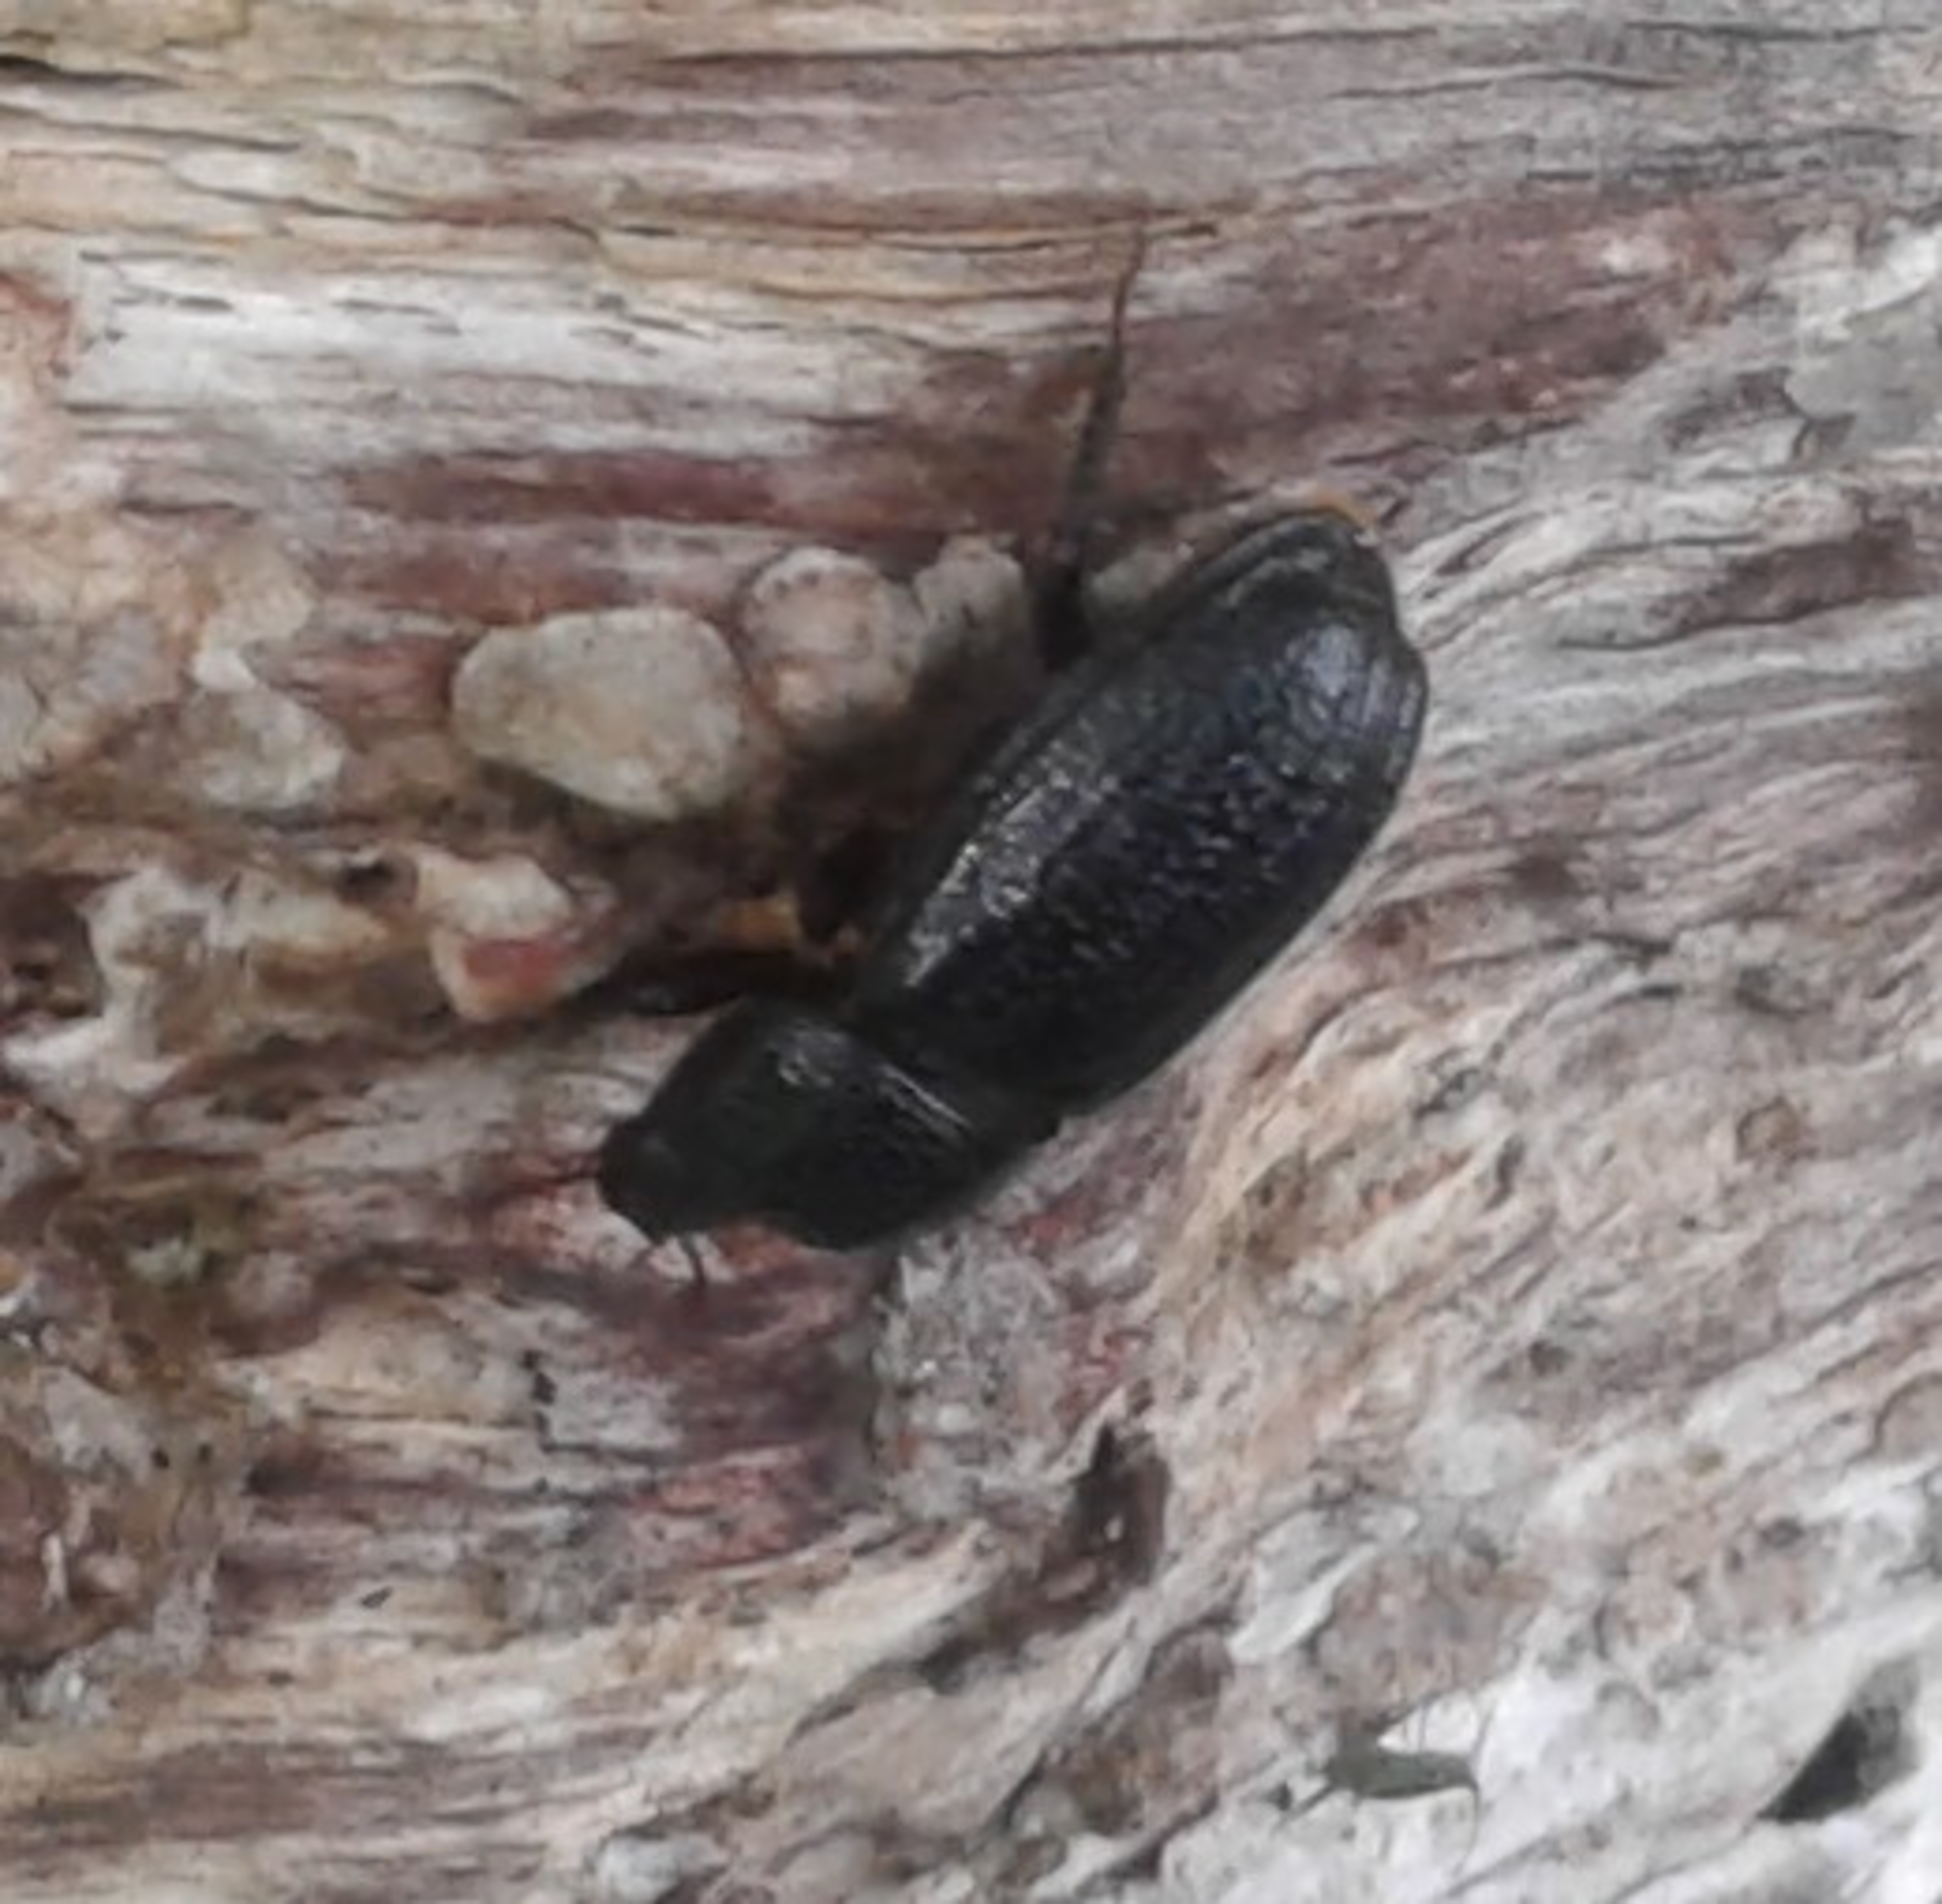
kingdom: Animalia
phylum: Arthropoda
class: Insecta
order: Coleoptera
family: Lucanidae
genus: Sinodendron
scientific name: Sinodendron cylindricum
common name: Valsehjort
